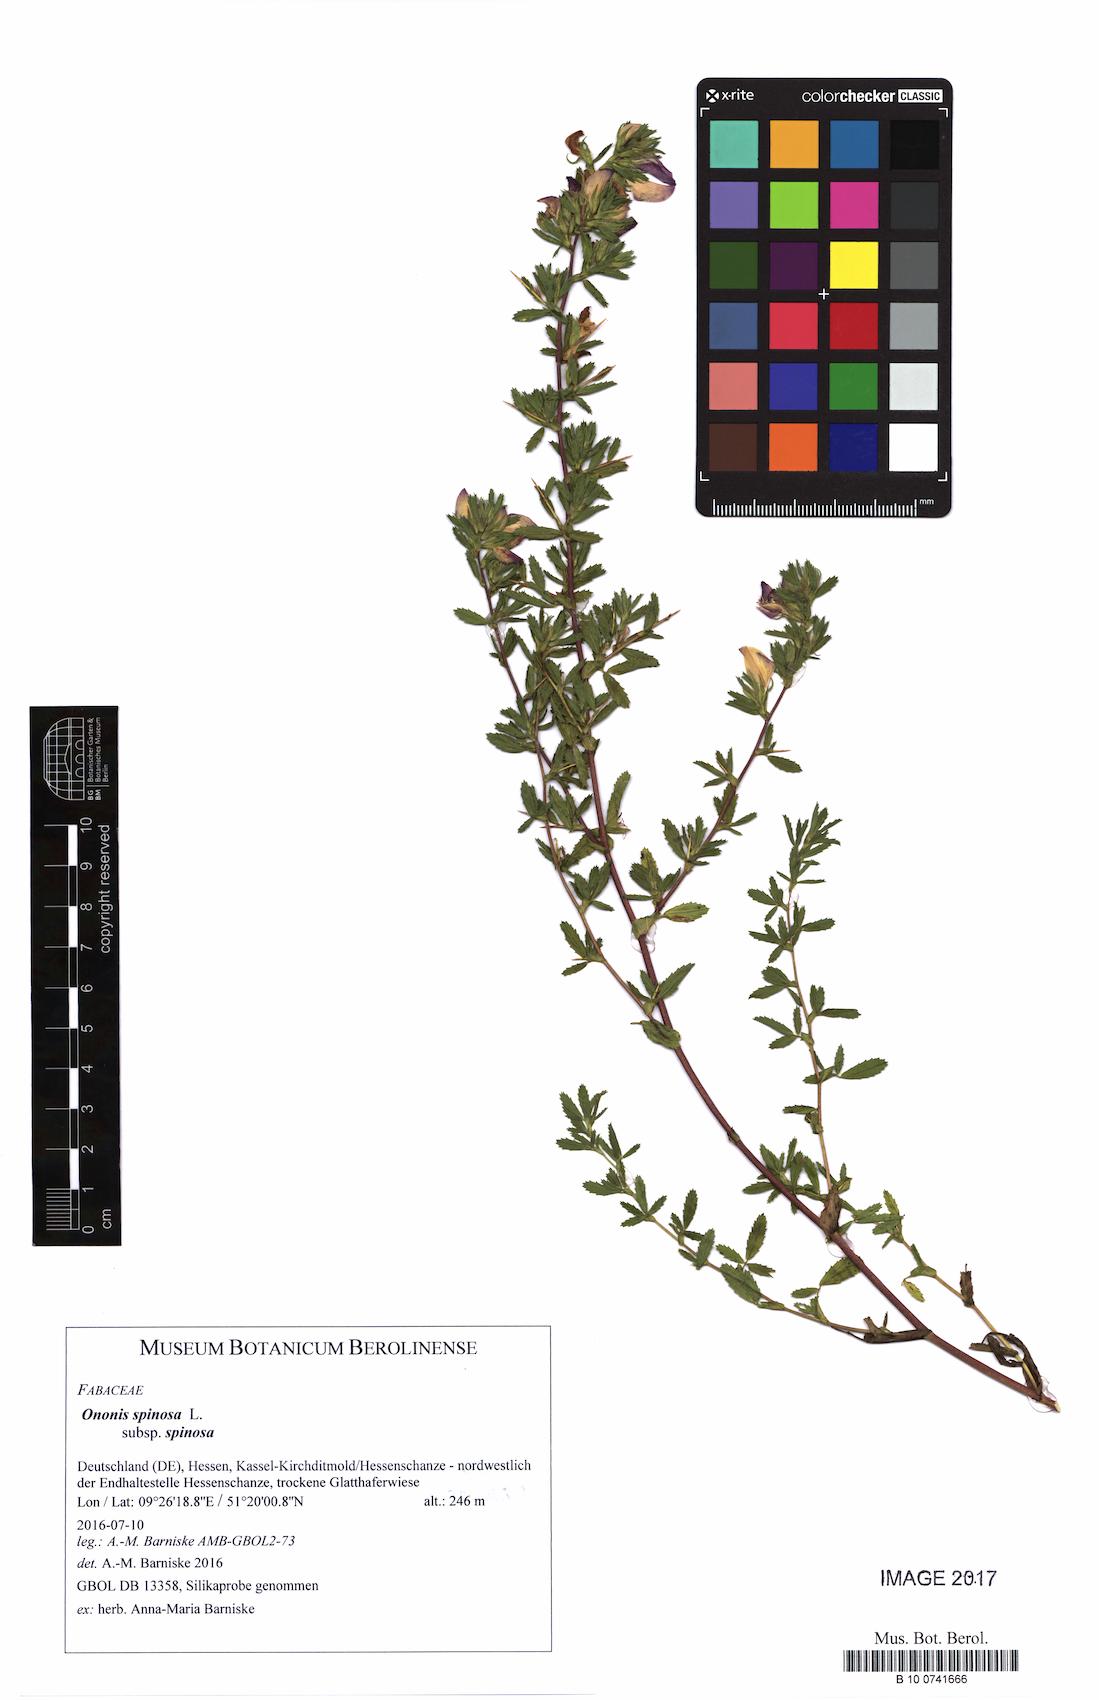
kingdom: Plantae
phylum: Tracheophyta
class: Magnoliopsida
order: Fabales
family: Fabaceae
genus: Ononis
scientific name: Ononis spinosa
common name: Spiny restharrow
